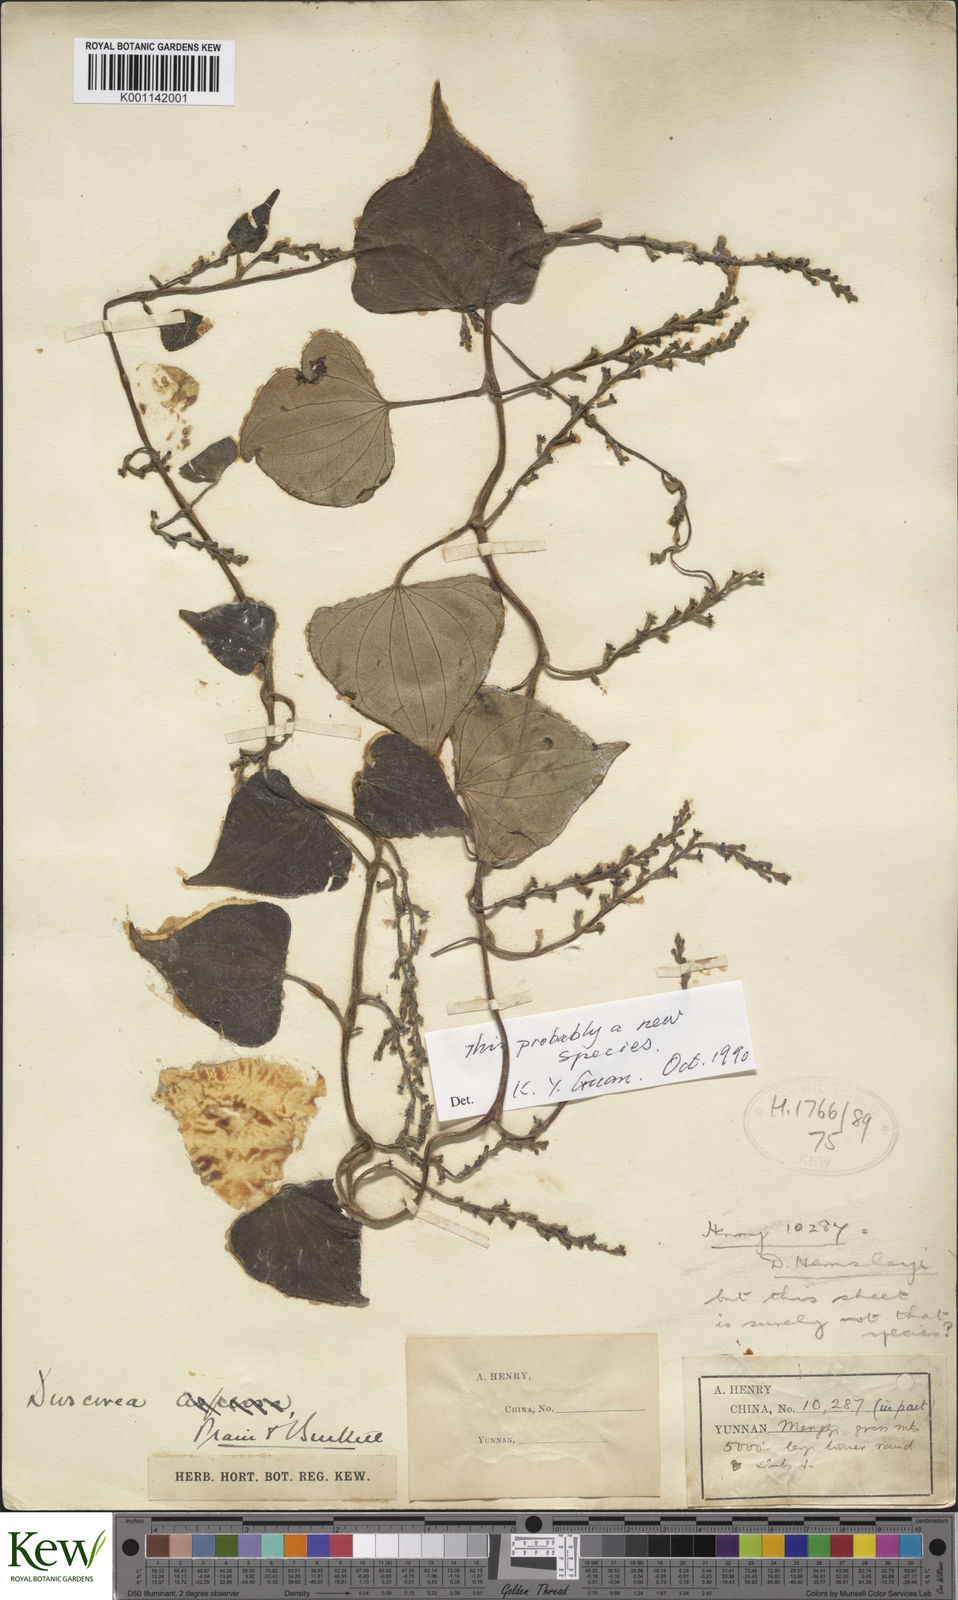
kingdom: Plantae
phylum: Tracheophyta
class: Liliopsida
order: Dioscoreales
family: Dioscoreaceae
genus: Dioscorea
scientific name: Dioscorea
